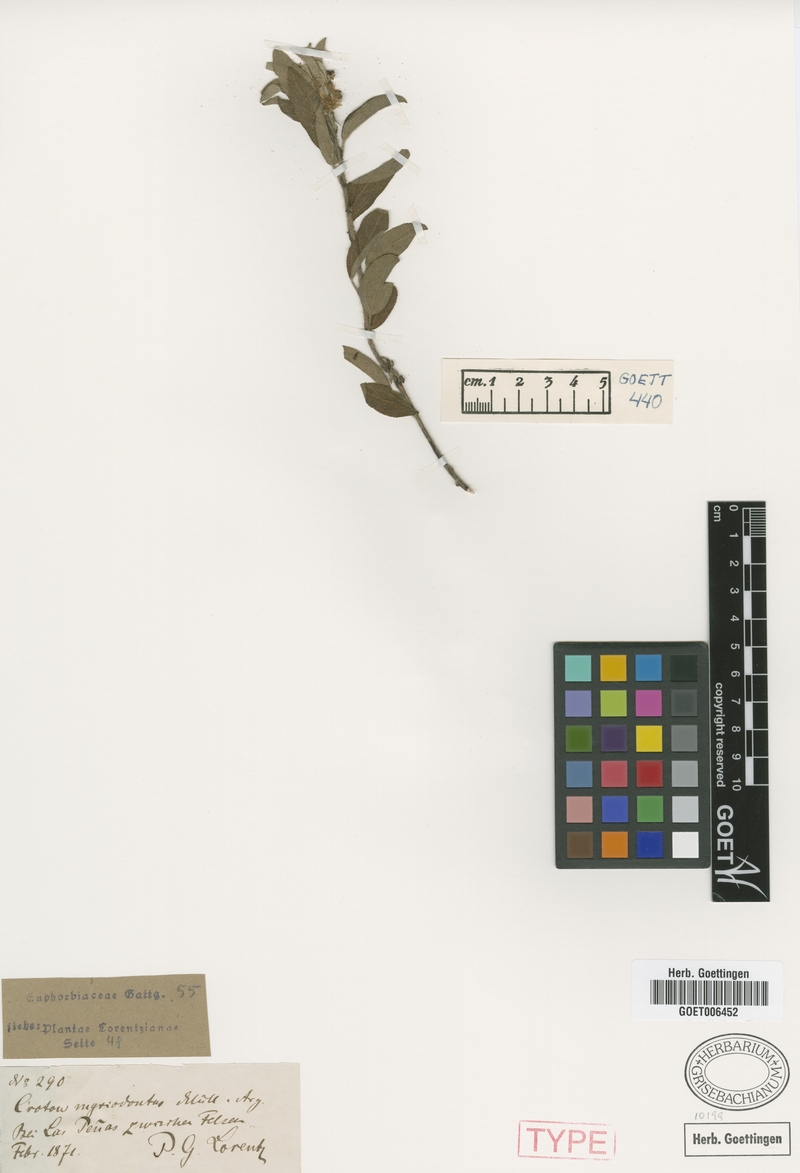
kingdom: Plantae
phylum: Tracheophyta
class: Magnoliopsida
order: Malpighiales
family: Euphorbiaceae
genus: Croton
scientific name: Croton serratifolius
